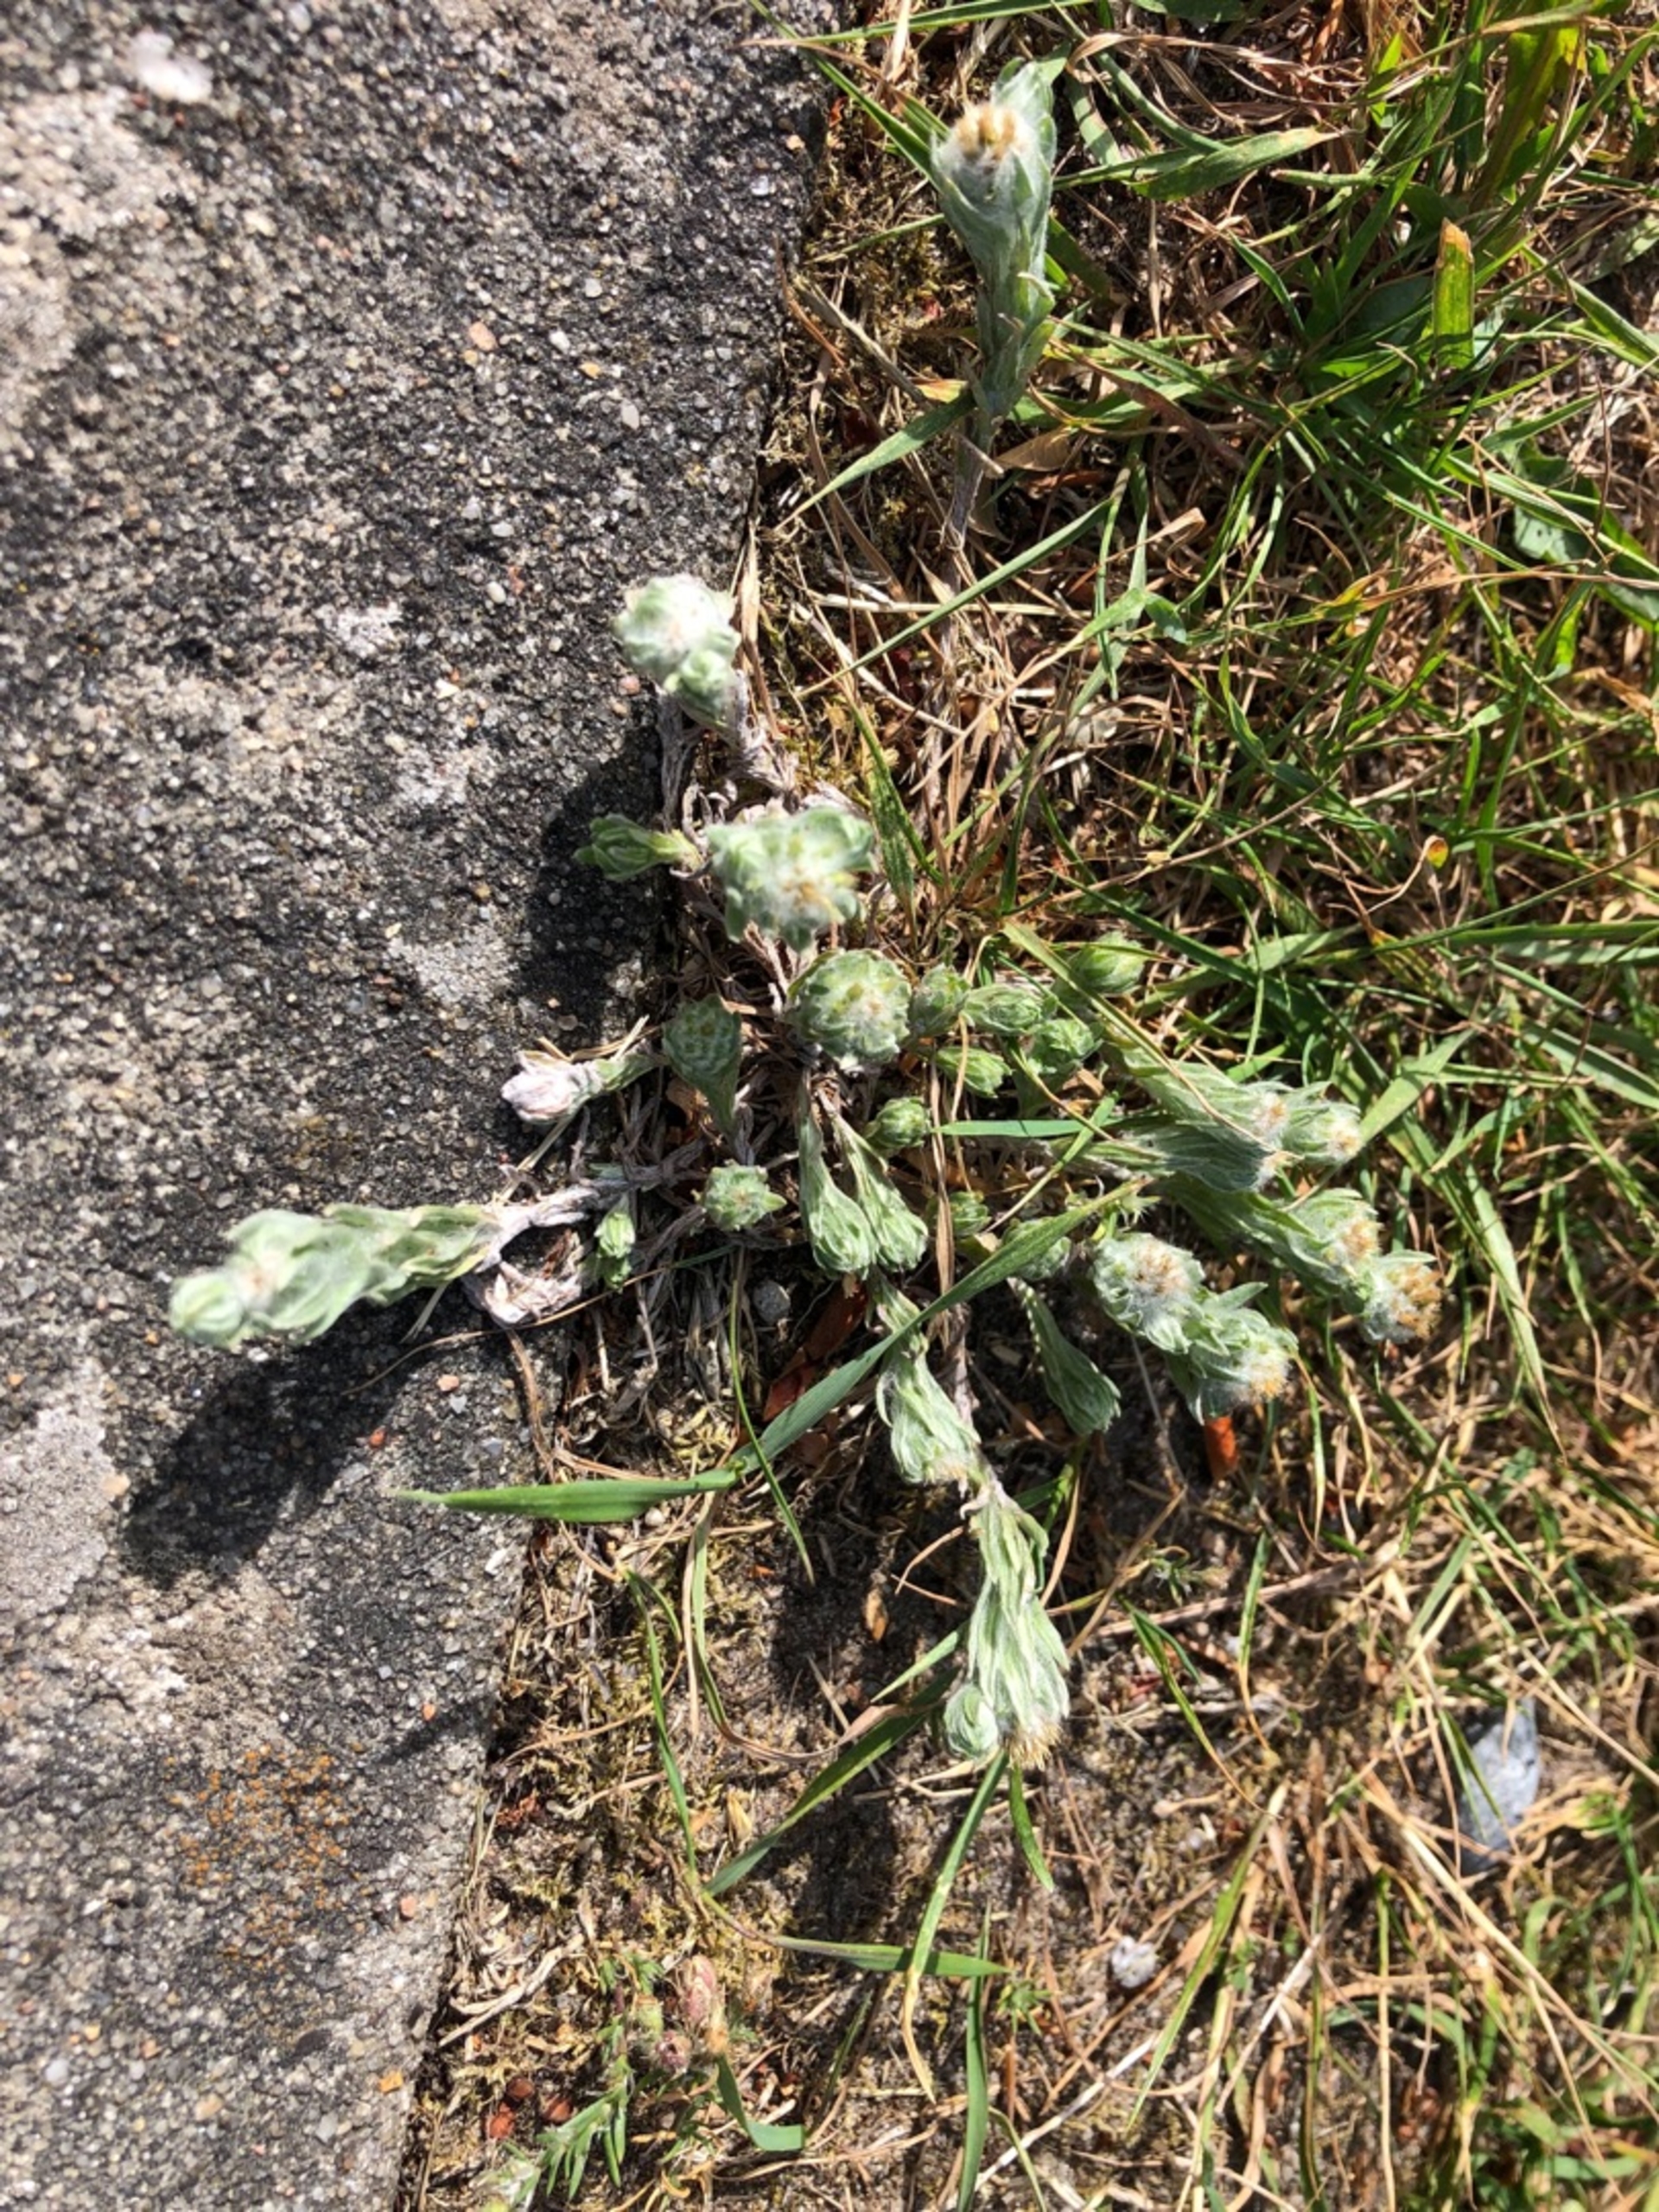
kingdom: Plantae
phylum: Tracheophyta
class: Magnoliopsida
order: Asterales
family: Asteraceae
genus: Filago
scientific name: Filago germanica
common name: Kugle-museurt
